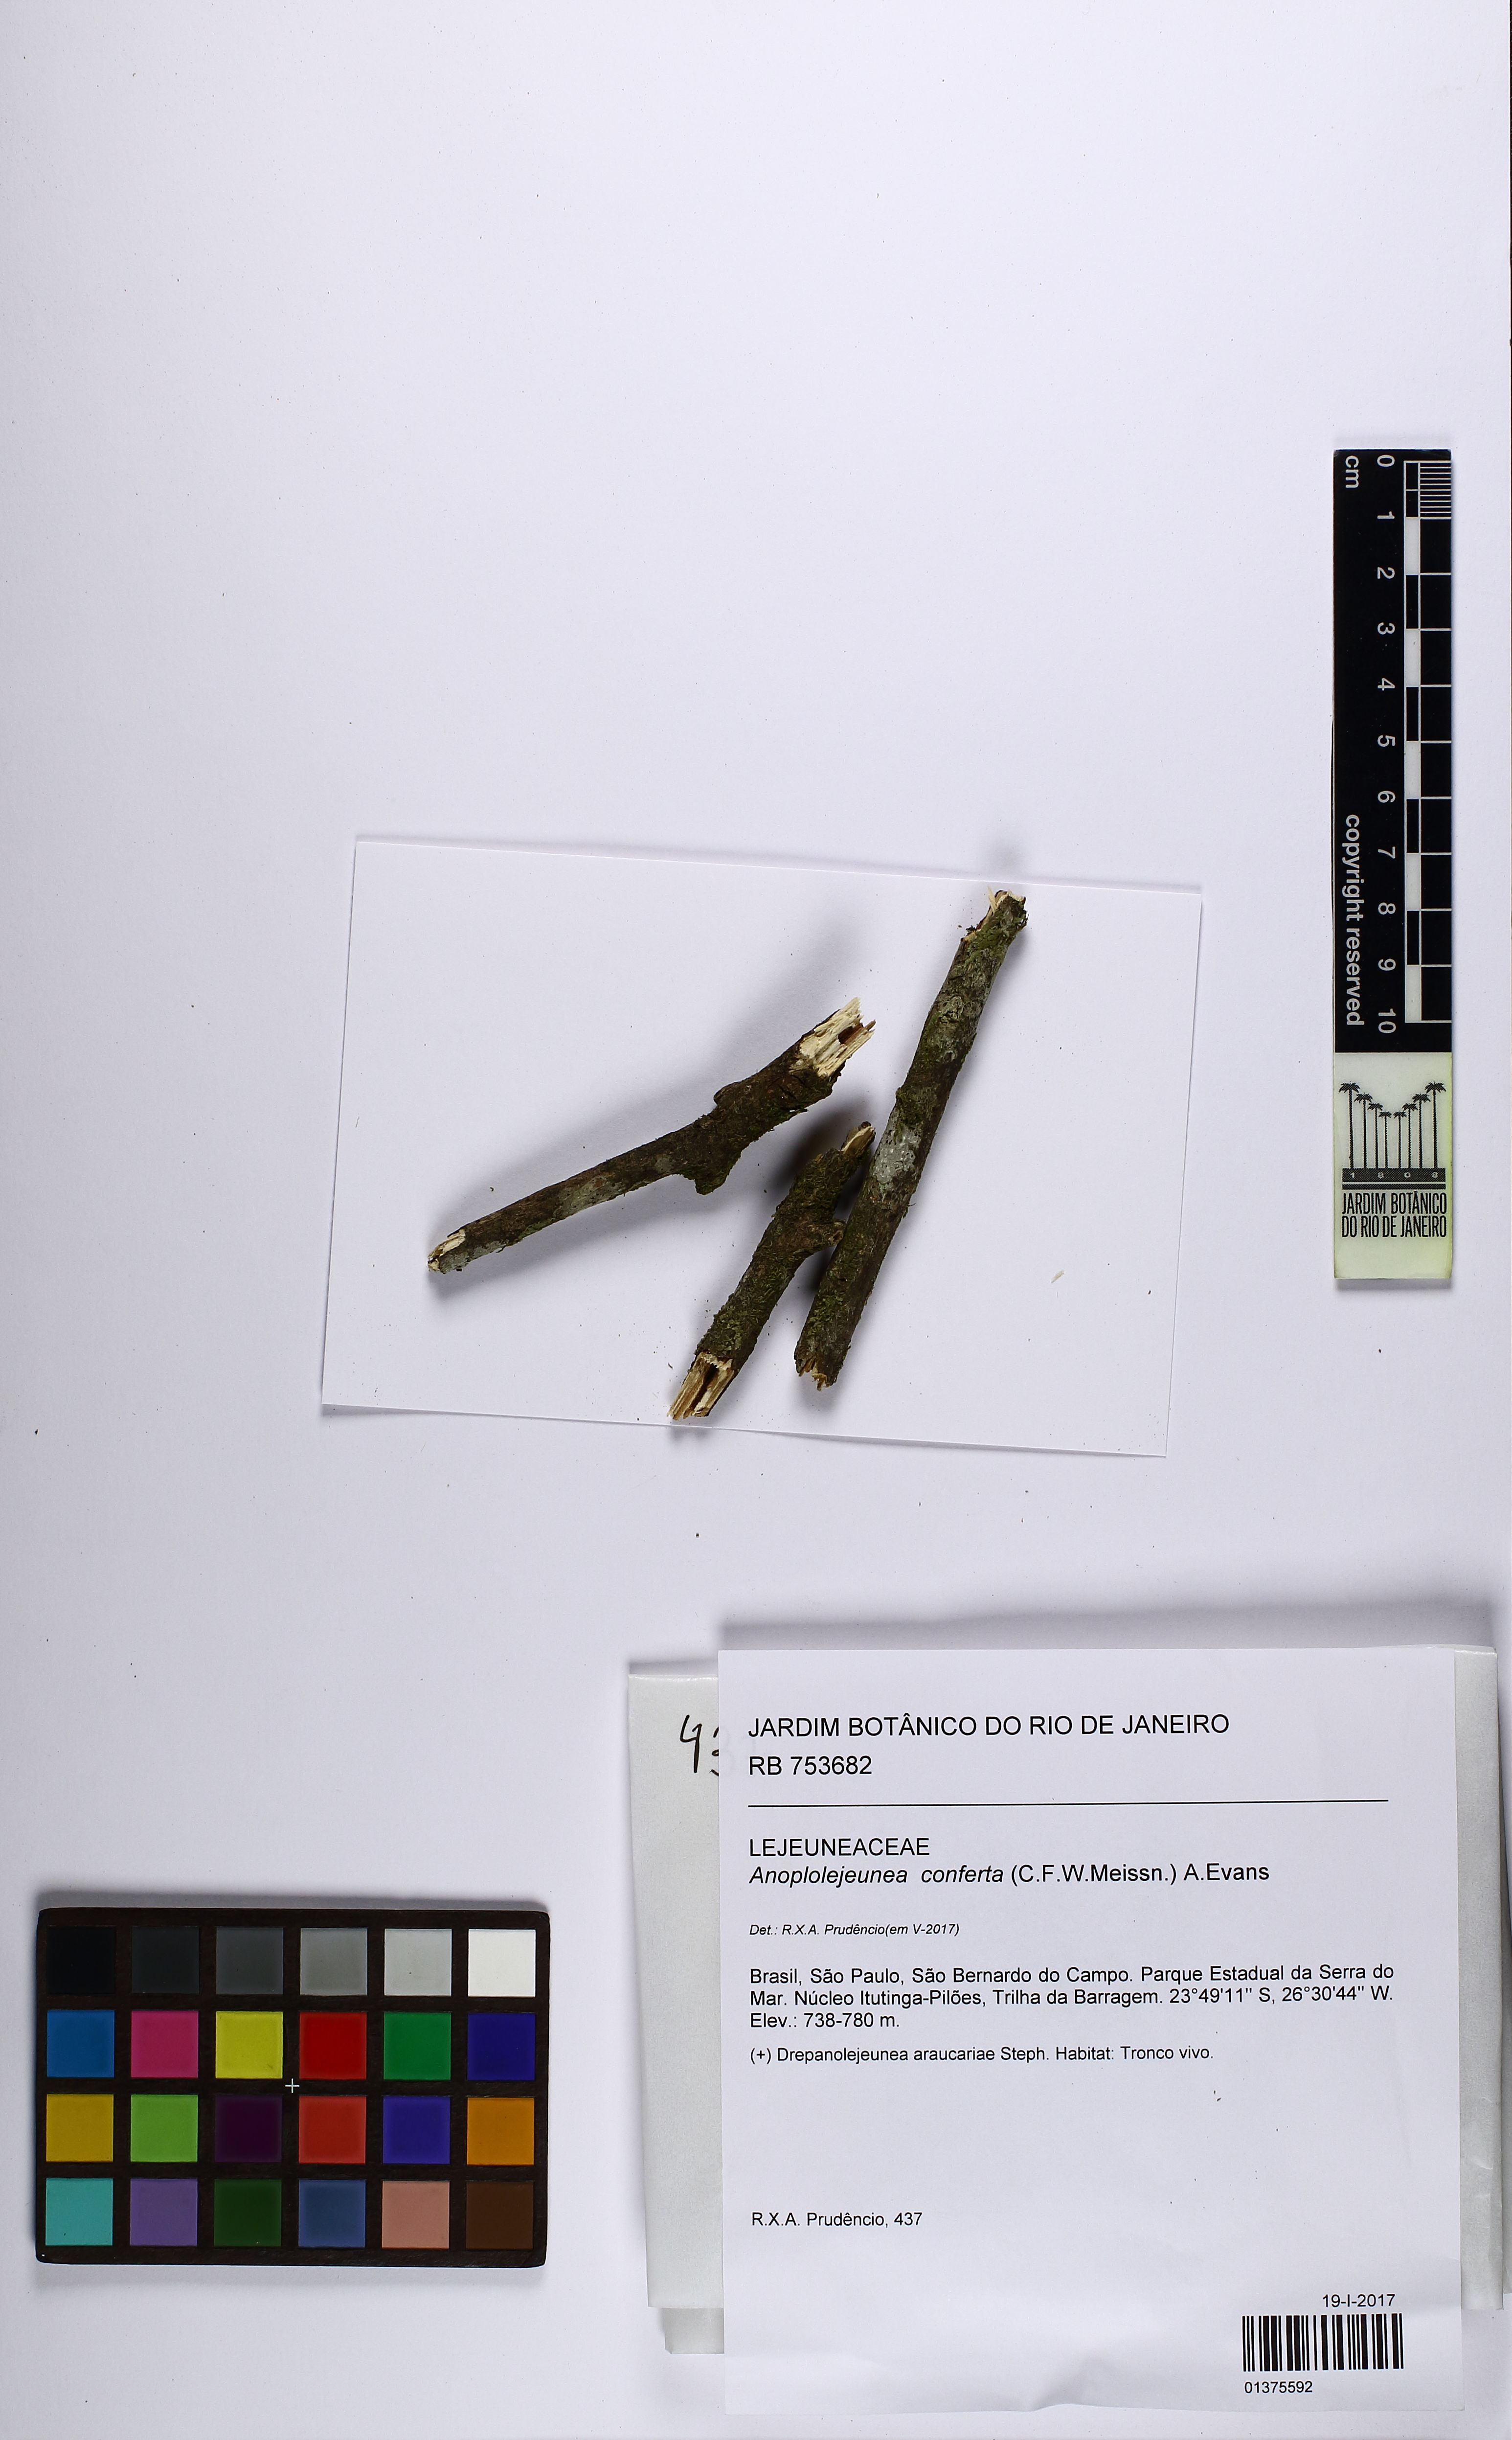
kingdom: Plantae
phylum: Marchantiophyta
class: Jungermanniopsida
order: Porellales
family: Lejeuneaceae
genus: Anoplolejeunea
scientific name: Anoplolejeunea conferta
